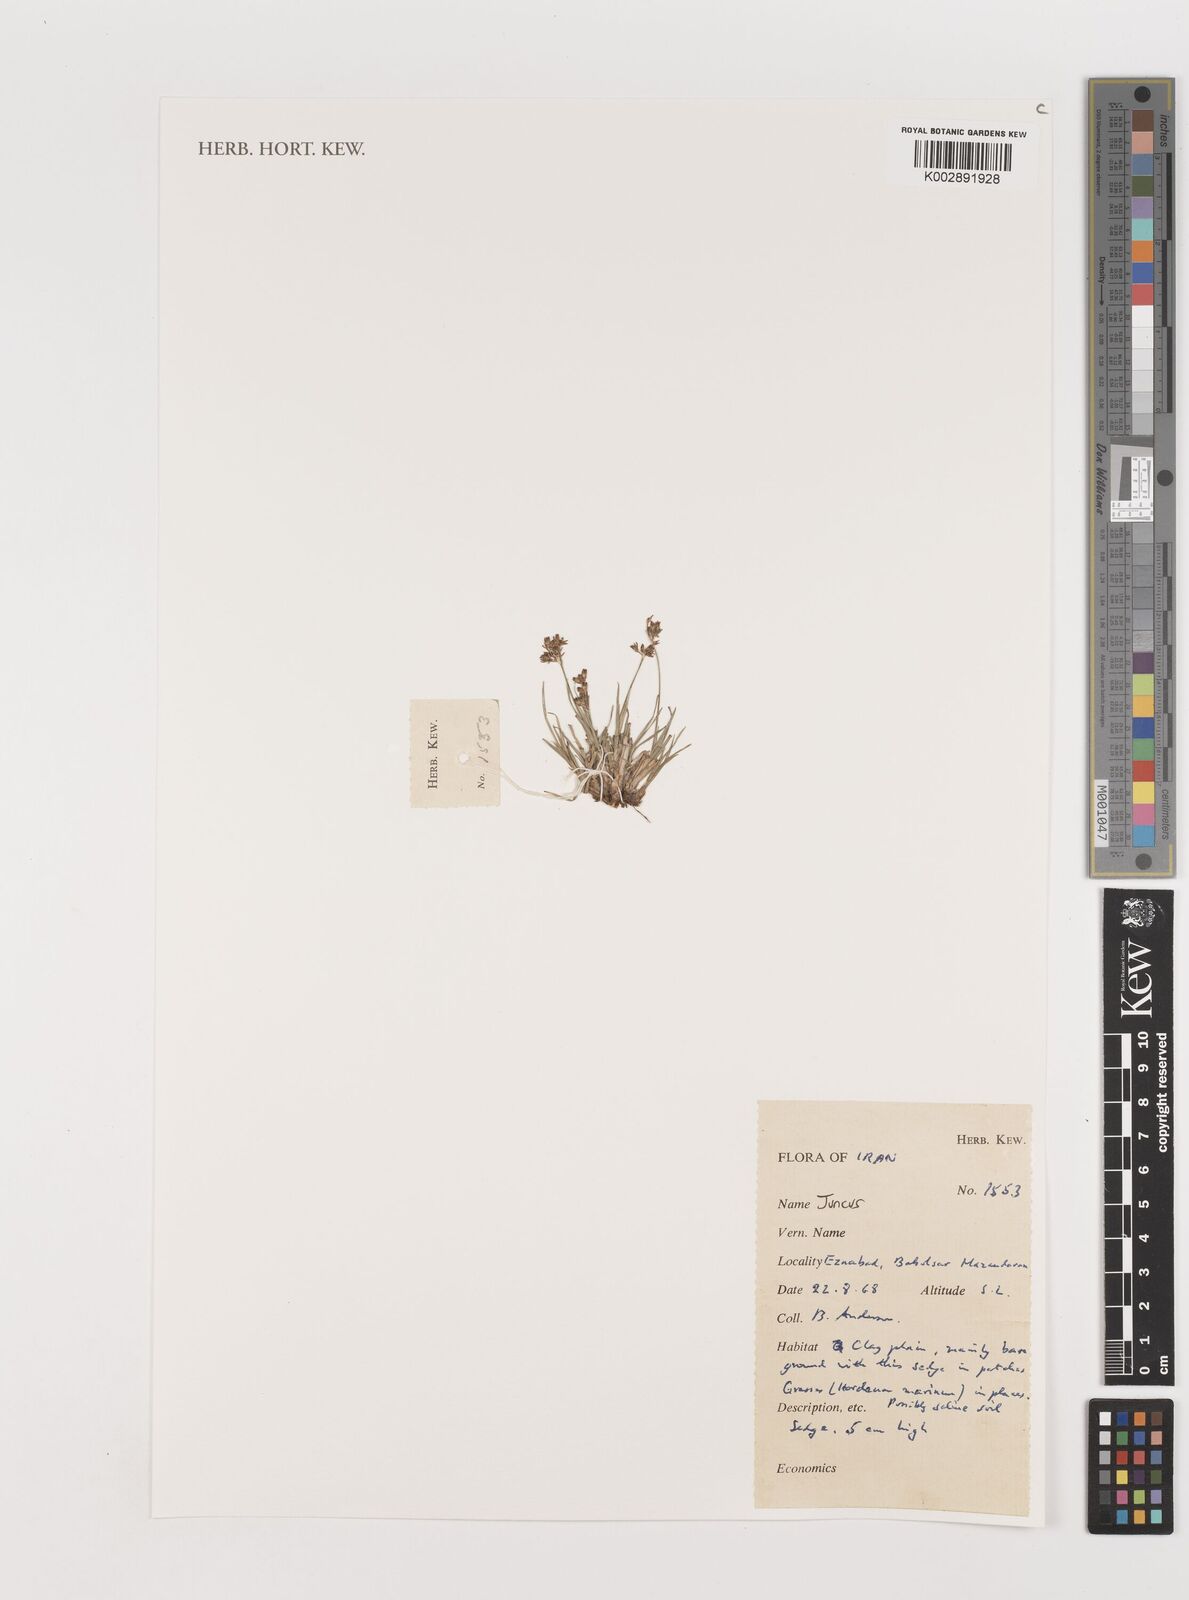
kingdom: Plantae
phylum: Tracheophyta
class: Liliopsida
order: Poales
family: Juncaceae
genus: Juncus
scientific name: Juncus
